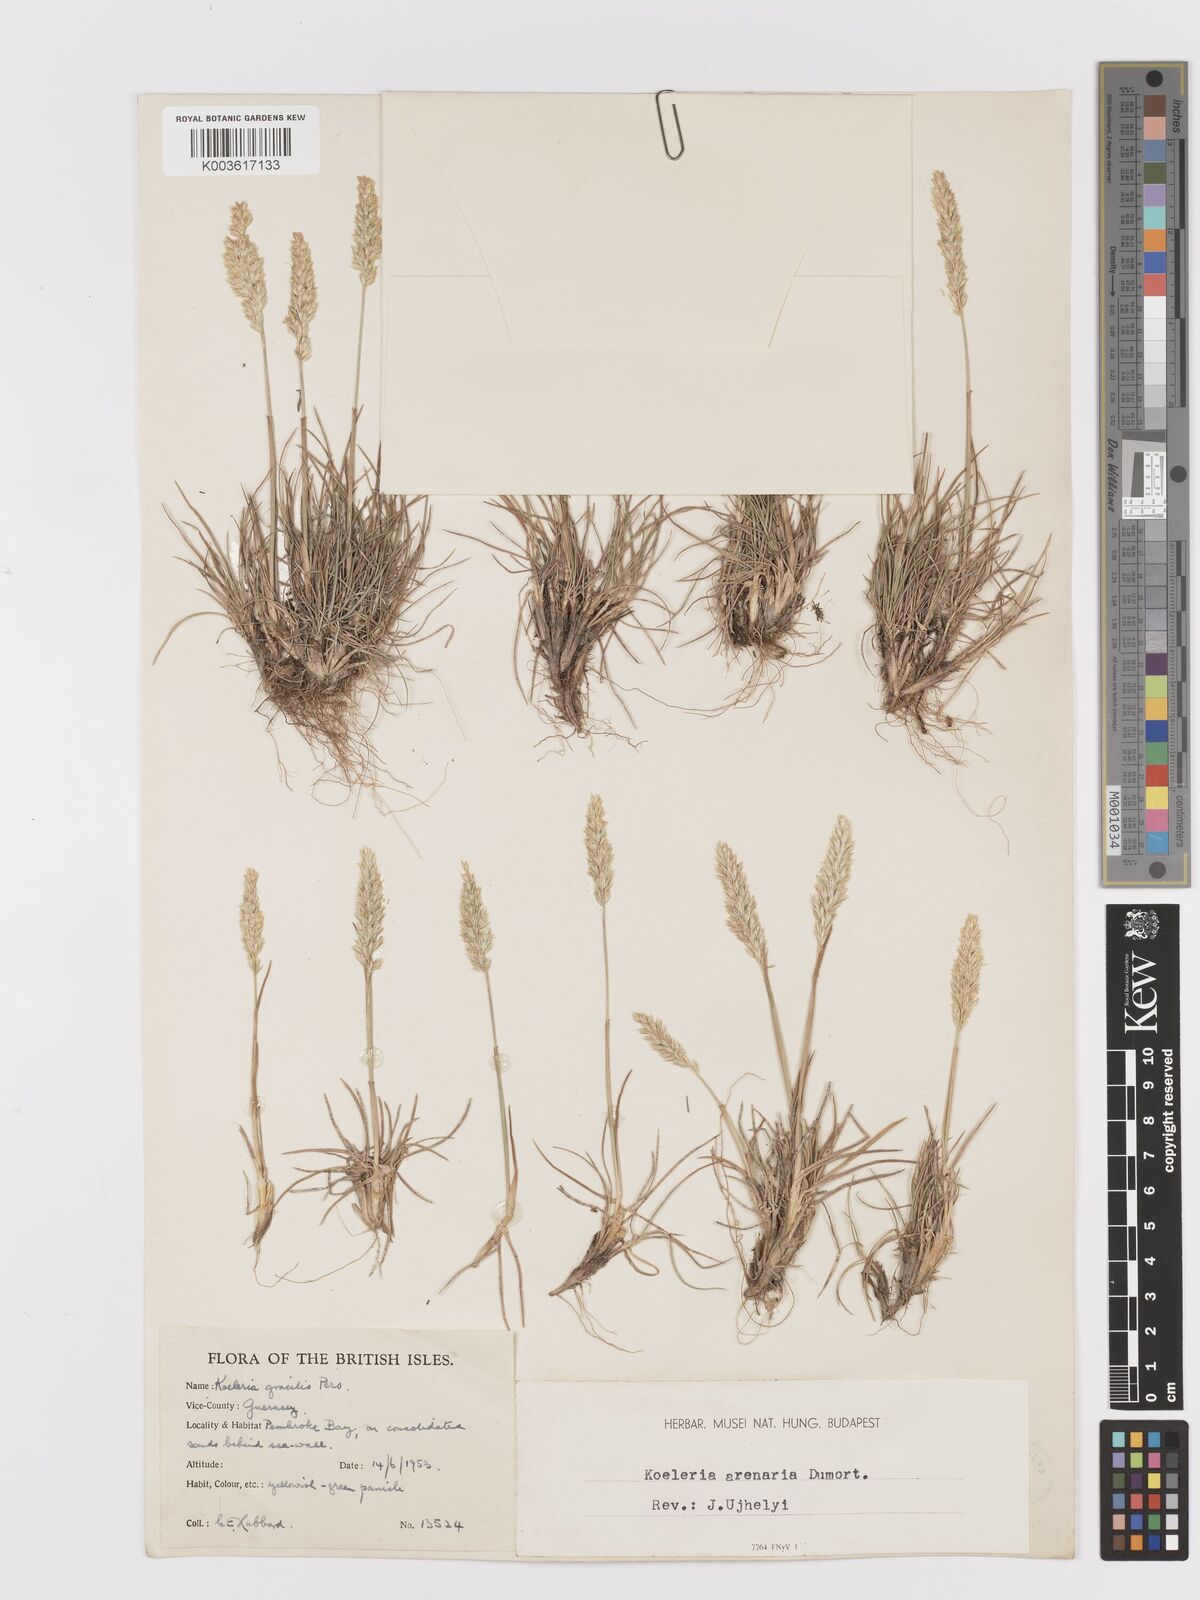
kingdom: Plantae
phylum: Tracheophyta
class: Liliopsida
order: Poales
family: Poaceae
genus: Koeleria
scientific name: Koeleria macrantha
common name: Crested hair-grass
